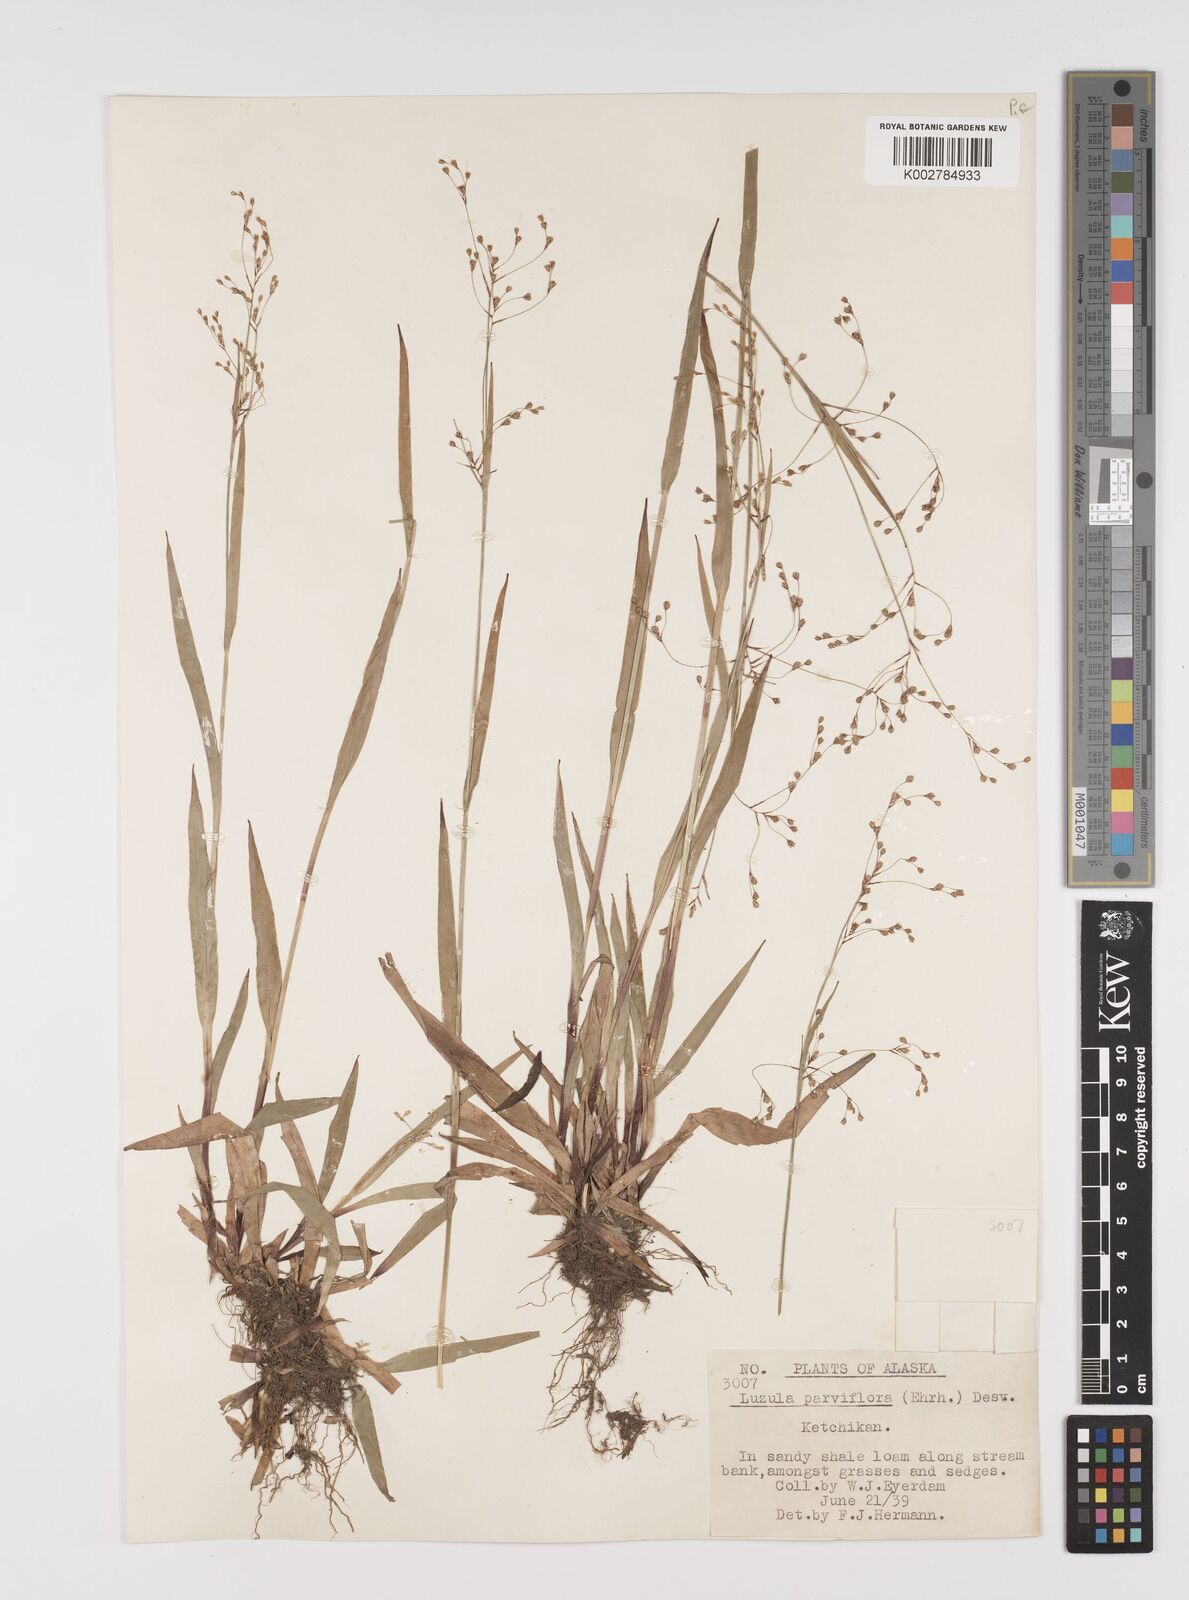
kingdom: Plantae
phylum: Tracheophyta
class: Liliopsida
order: Poales
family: Juncaceae
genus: Luzula
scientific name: Luzula parviflora
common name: Millet woodrush
